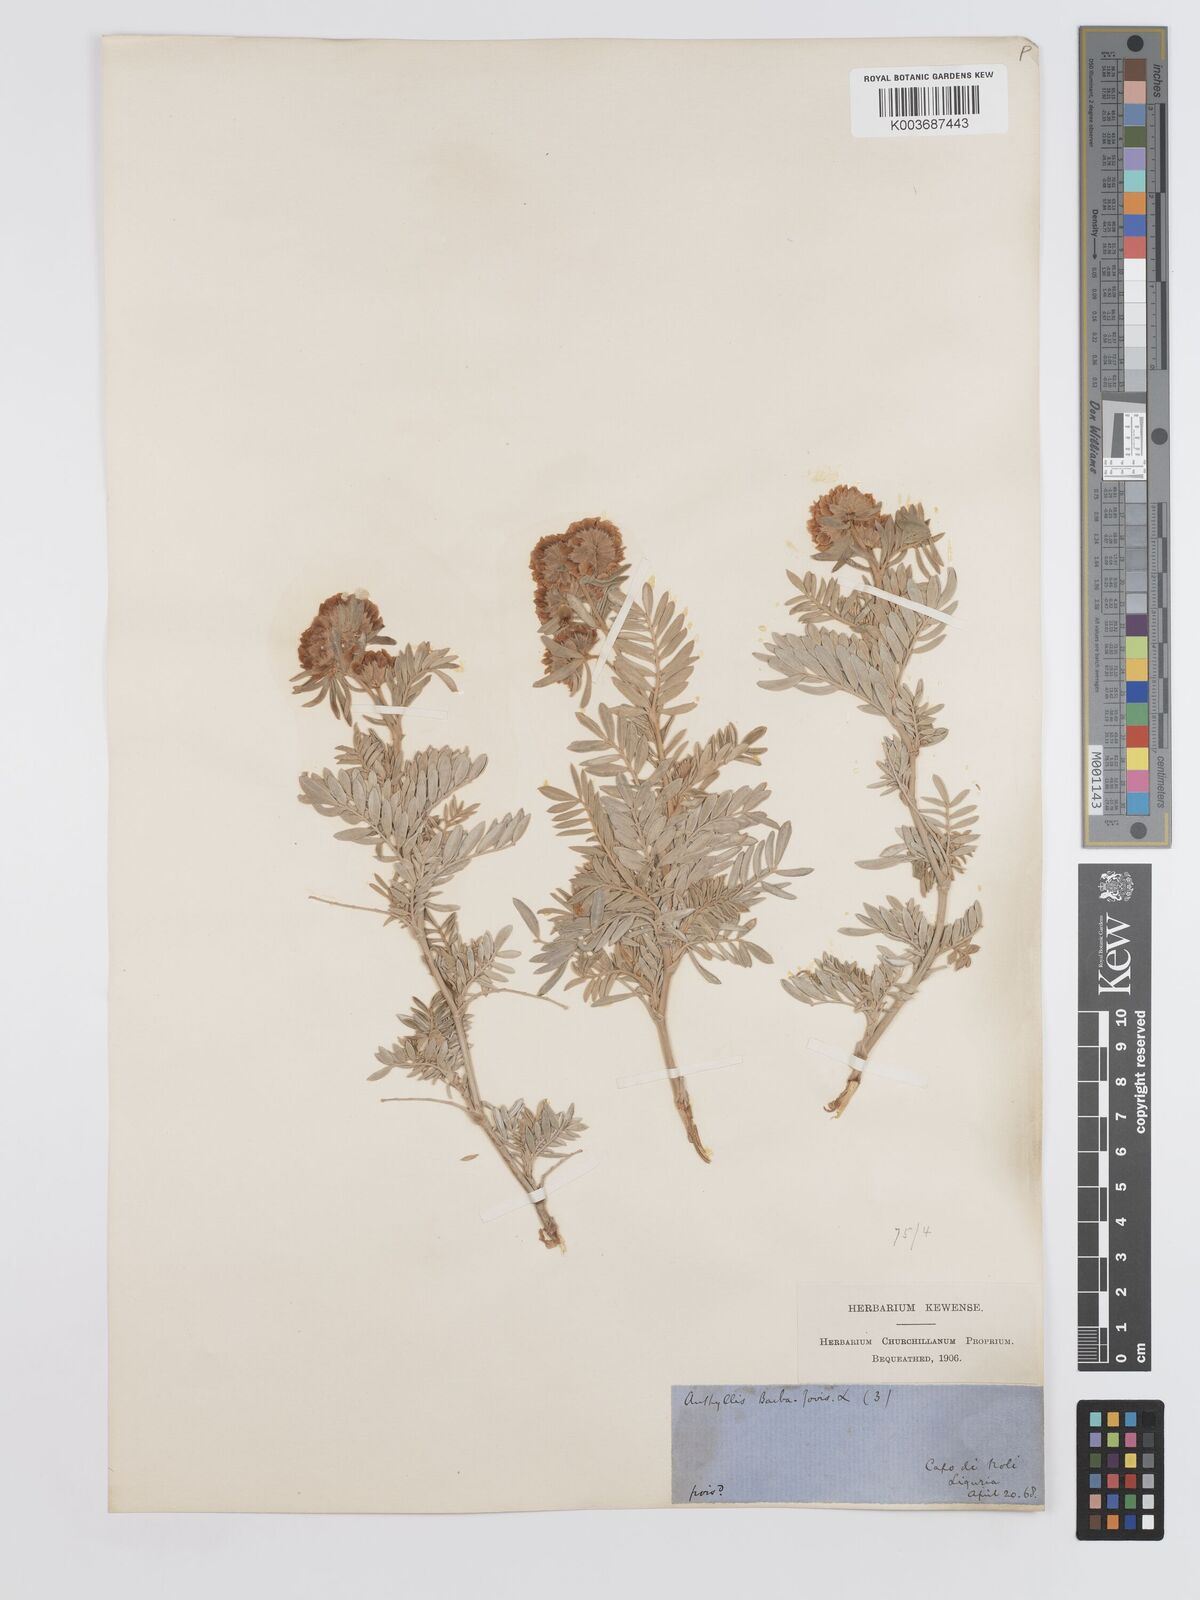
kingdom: Plantae
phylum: Tracheophyta
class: Magnoliopsida
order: Fabales
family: Fabaceae
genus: Anthyllis
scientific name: Anthyllis barba-jovis
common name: Jupiter's-beard
